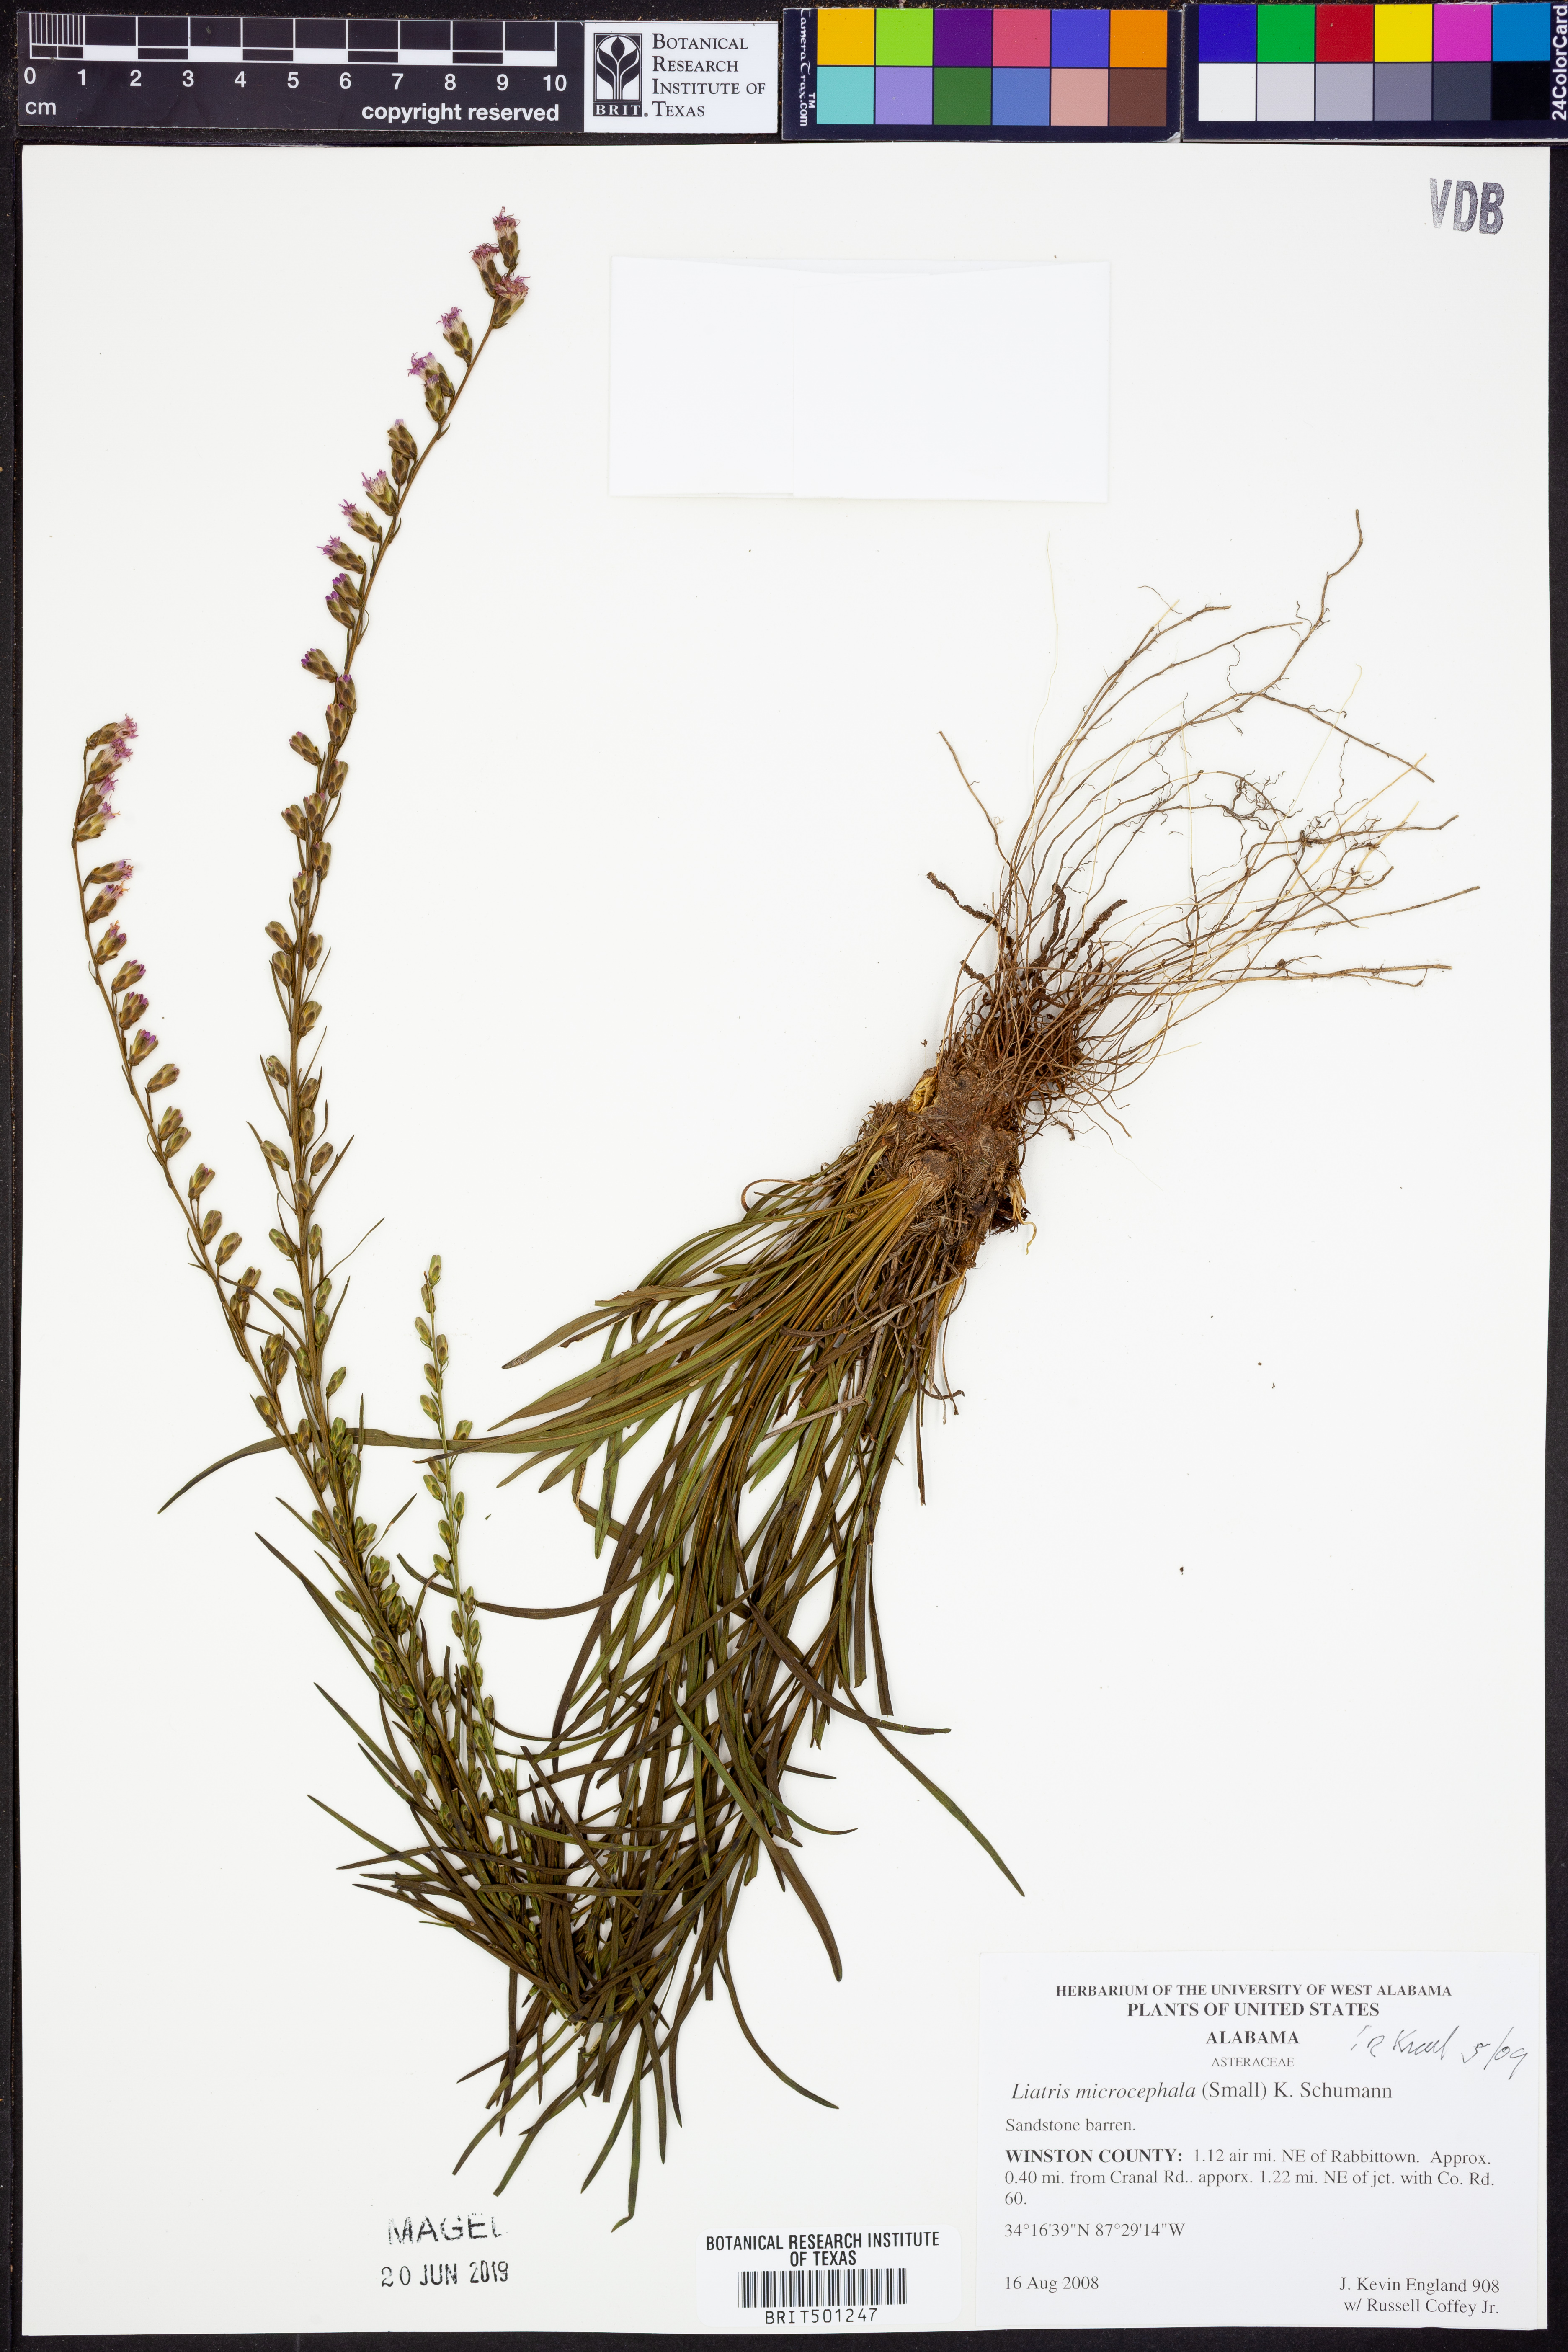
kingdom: Plantae
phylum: Tracheophyta
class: Magnoliopsida
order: Asterales
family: Asteraceae
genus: Liatris
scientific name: Liatris microcephala
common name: Small-head gayfeather
